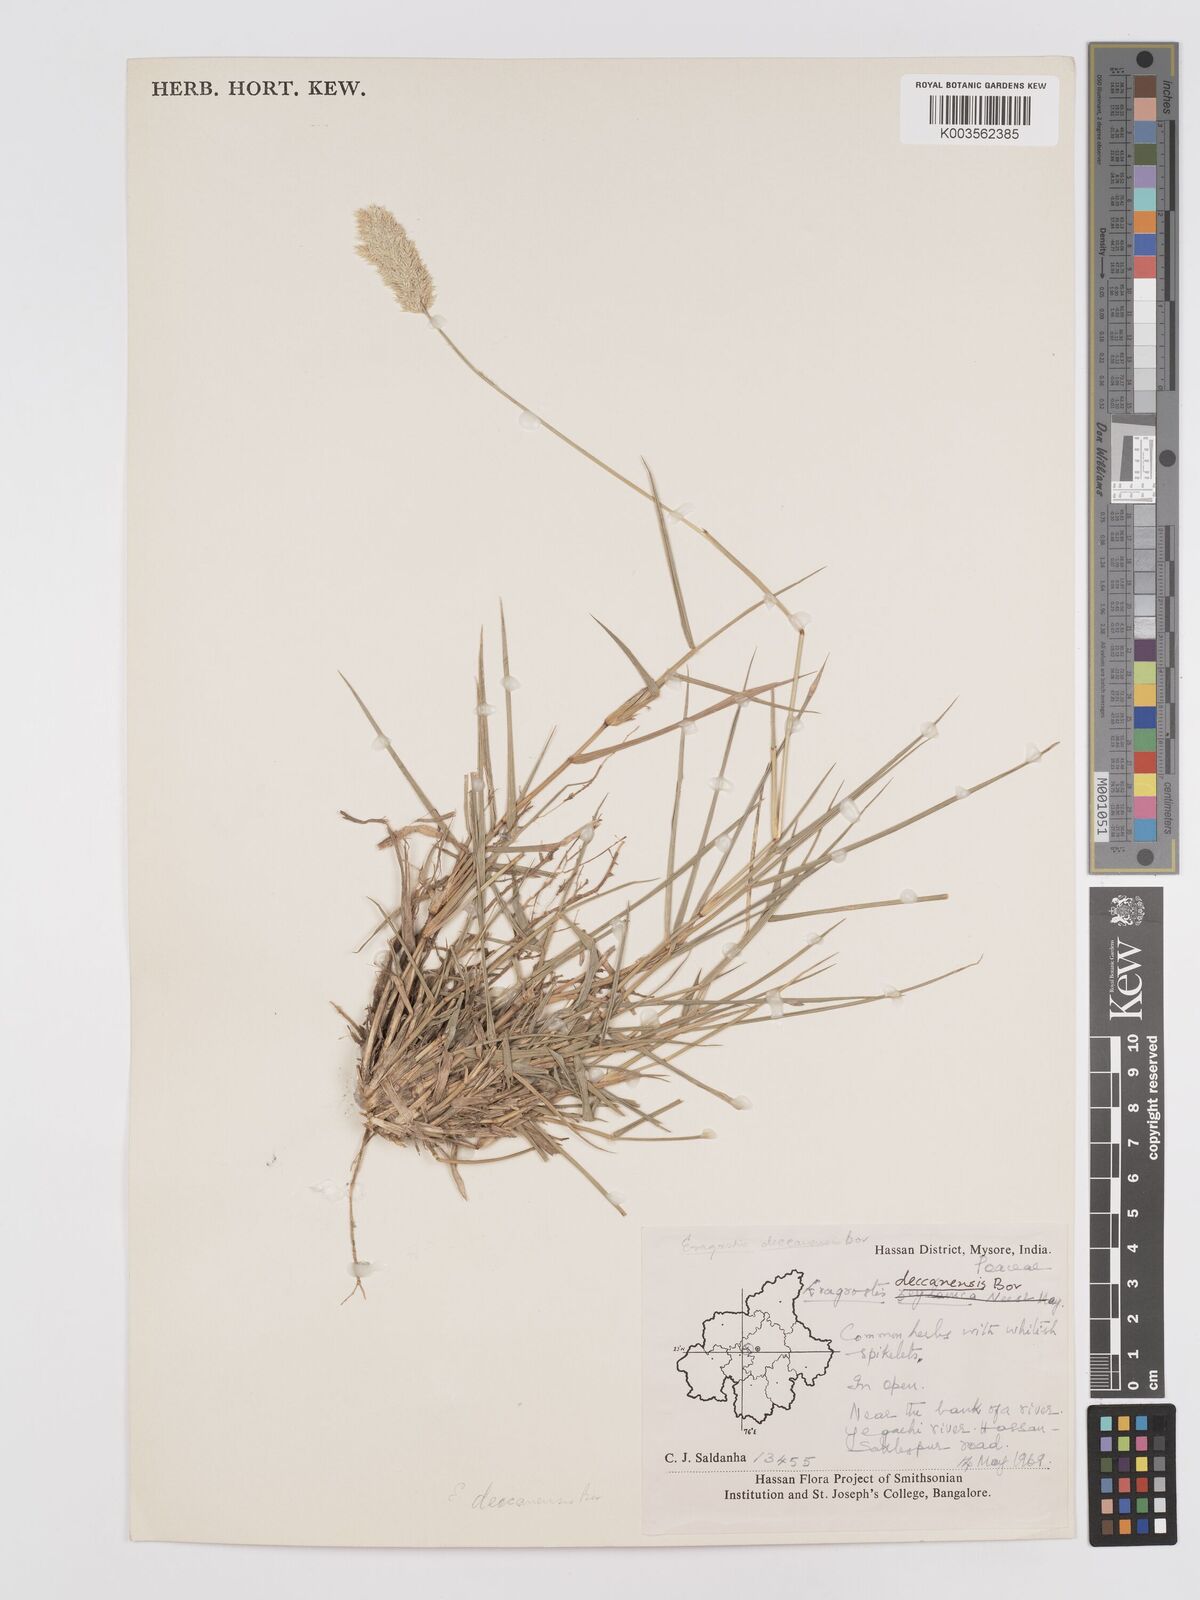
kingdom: Plantae
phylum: Tracheophyta
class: Liliopsida
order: Poales
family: Poaceae
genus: Eragrostis
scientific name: Eragrostis deccanensis
